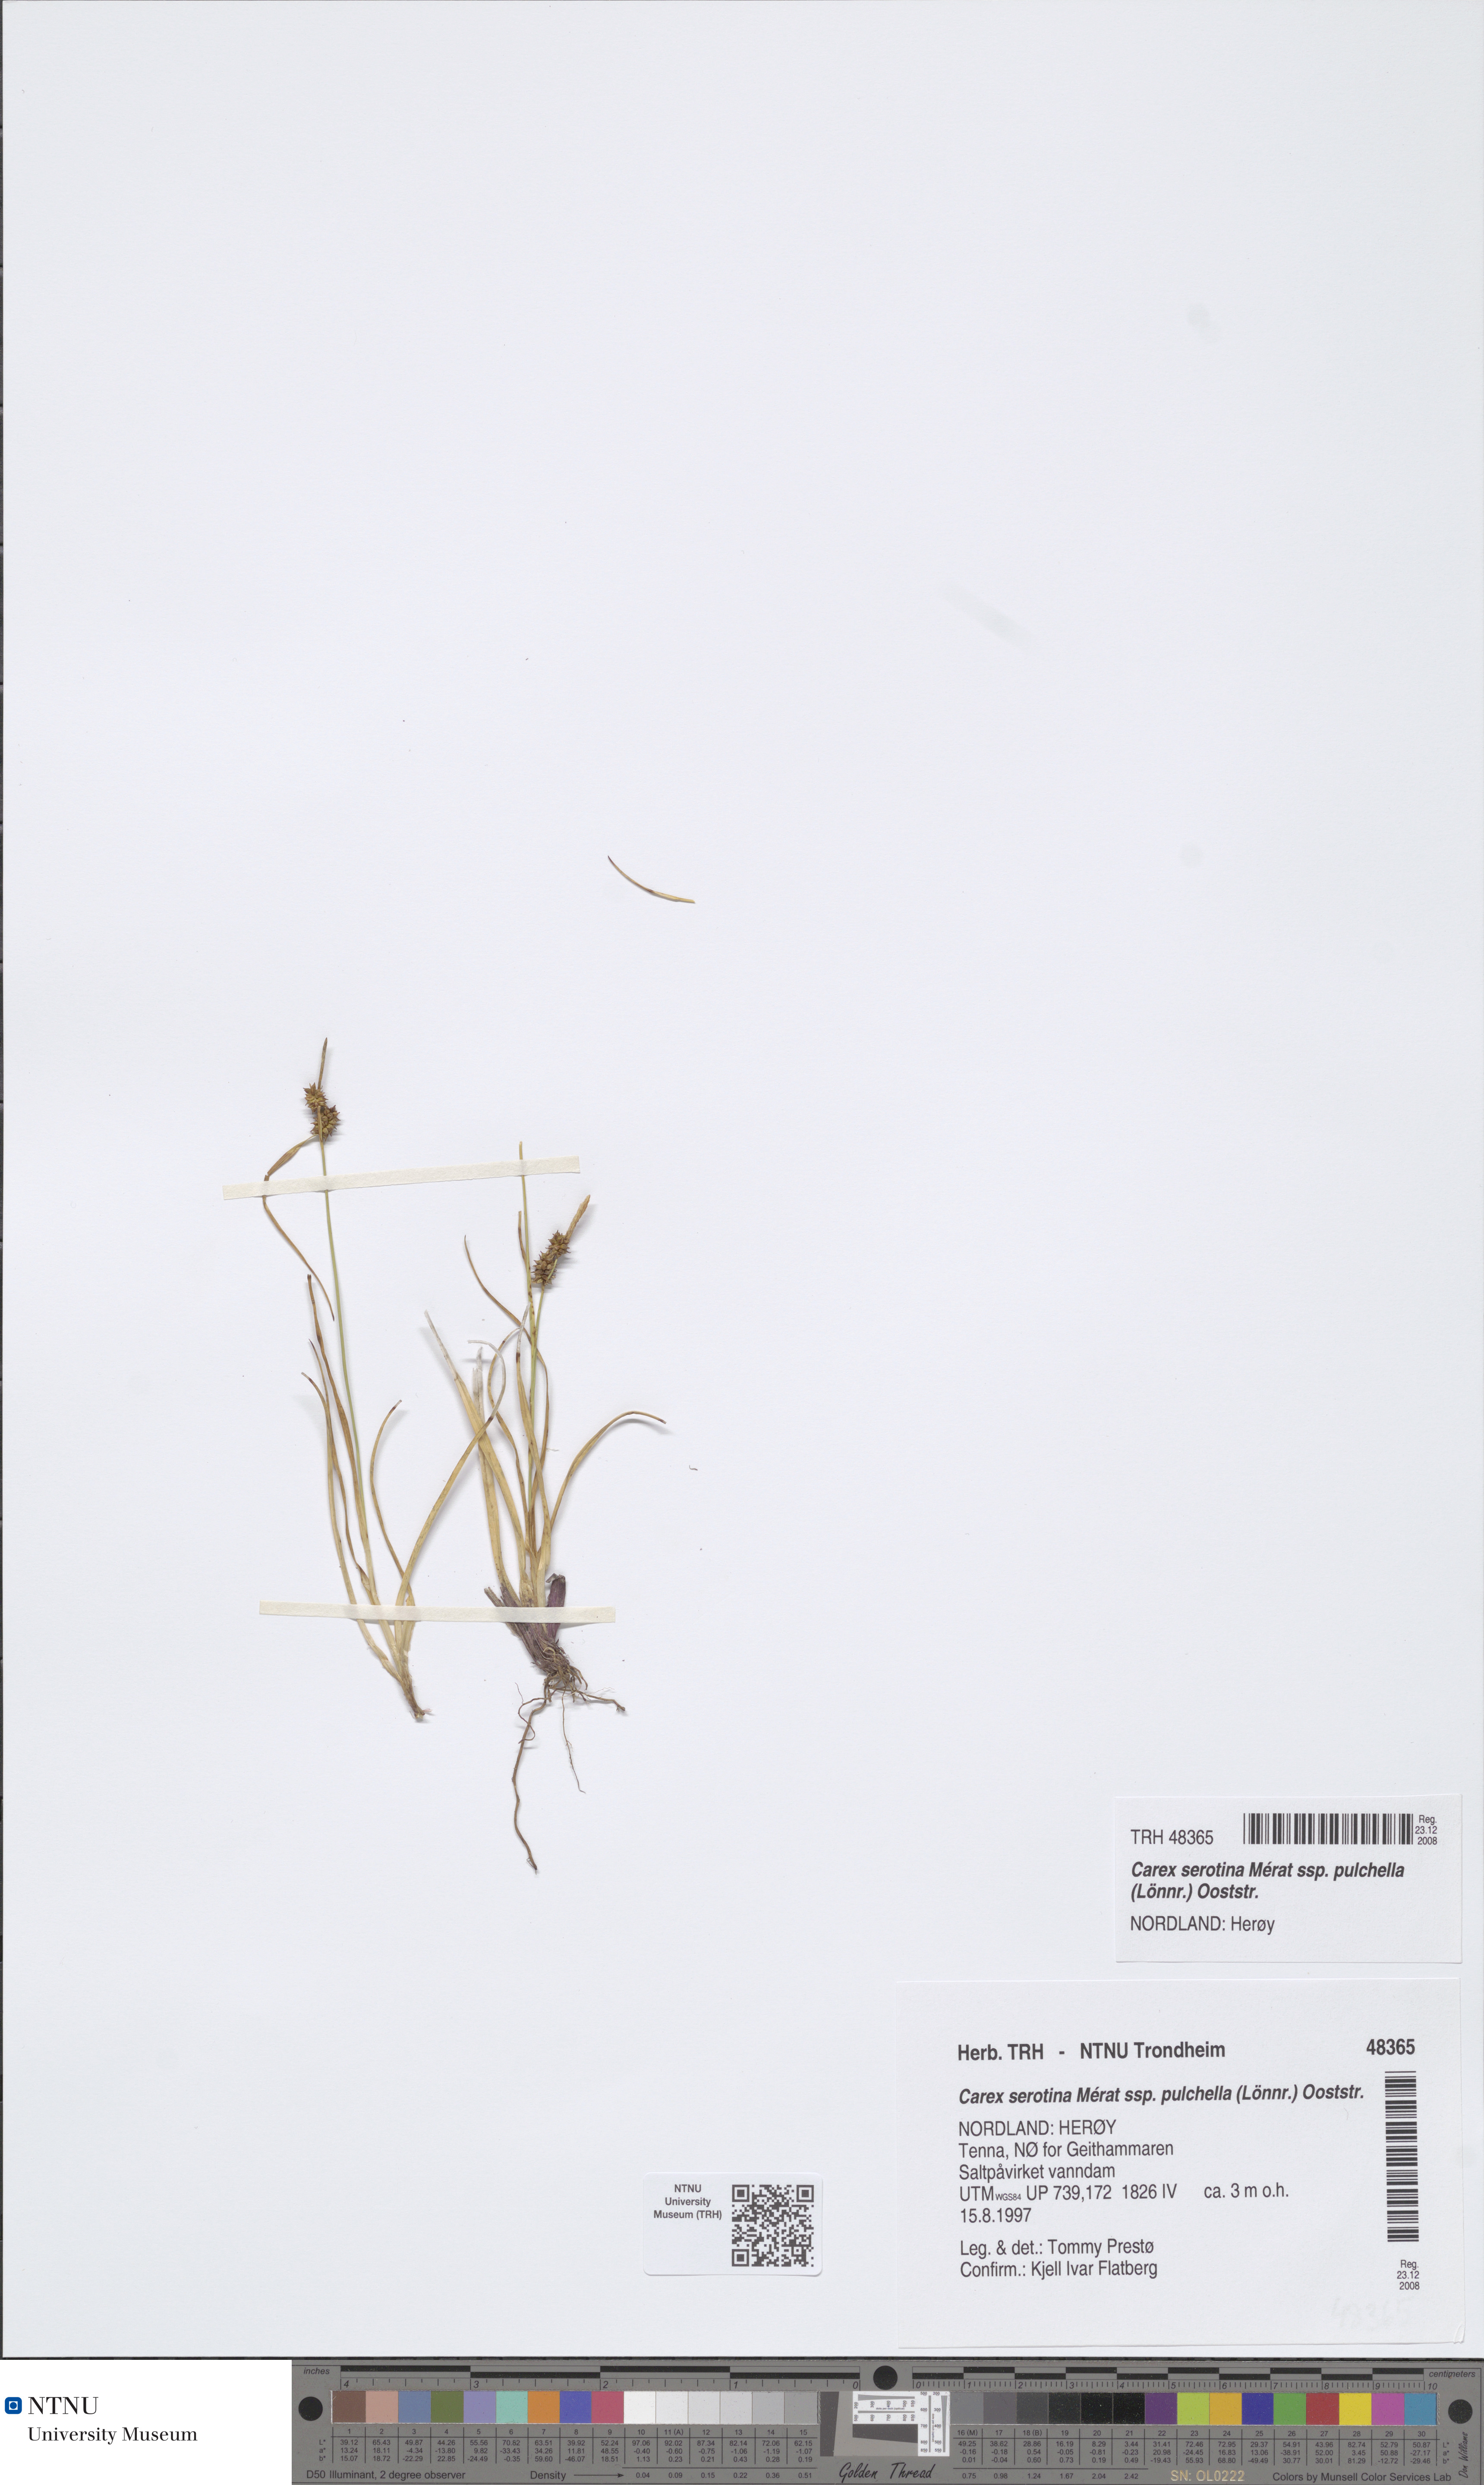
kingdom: Plantae
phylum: Tracheophyta
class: Liliopsida
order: Poales
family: Cyperaceae
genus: Carex
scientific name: Carex oederi
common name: Common & small-fruited yellow-sedge
